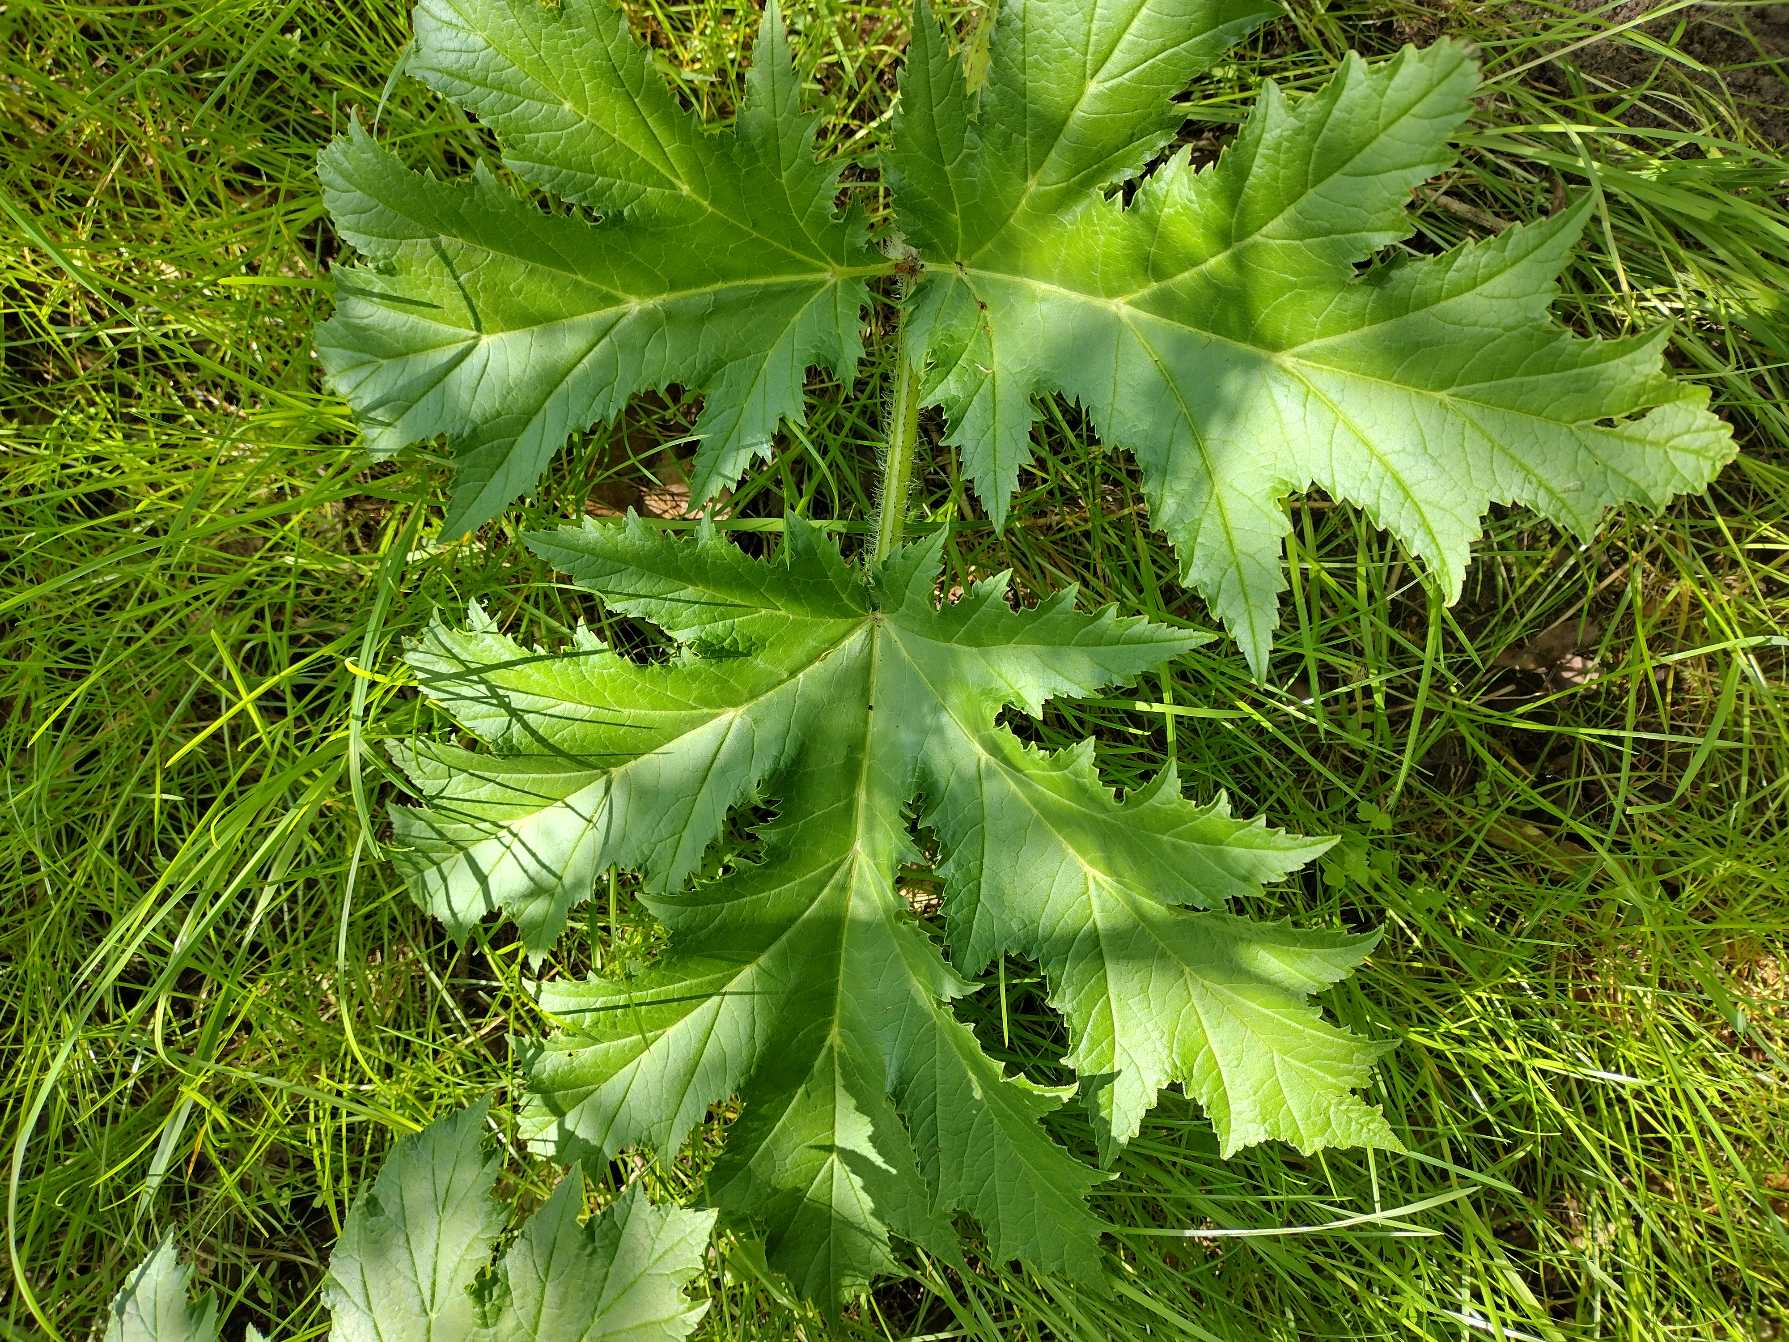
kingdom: Plantae
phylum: Tracheophyta
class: Magnoliopsida
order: Apiales
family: Apiaceae
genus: Heracleum
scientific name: Heracleum mantegazzianum
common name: Kæmpe-bjørneklo
